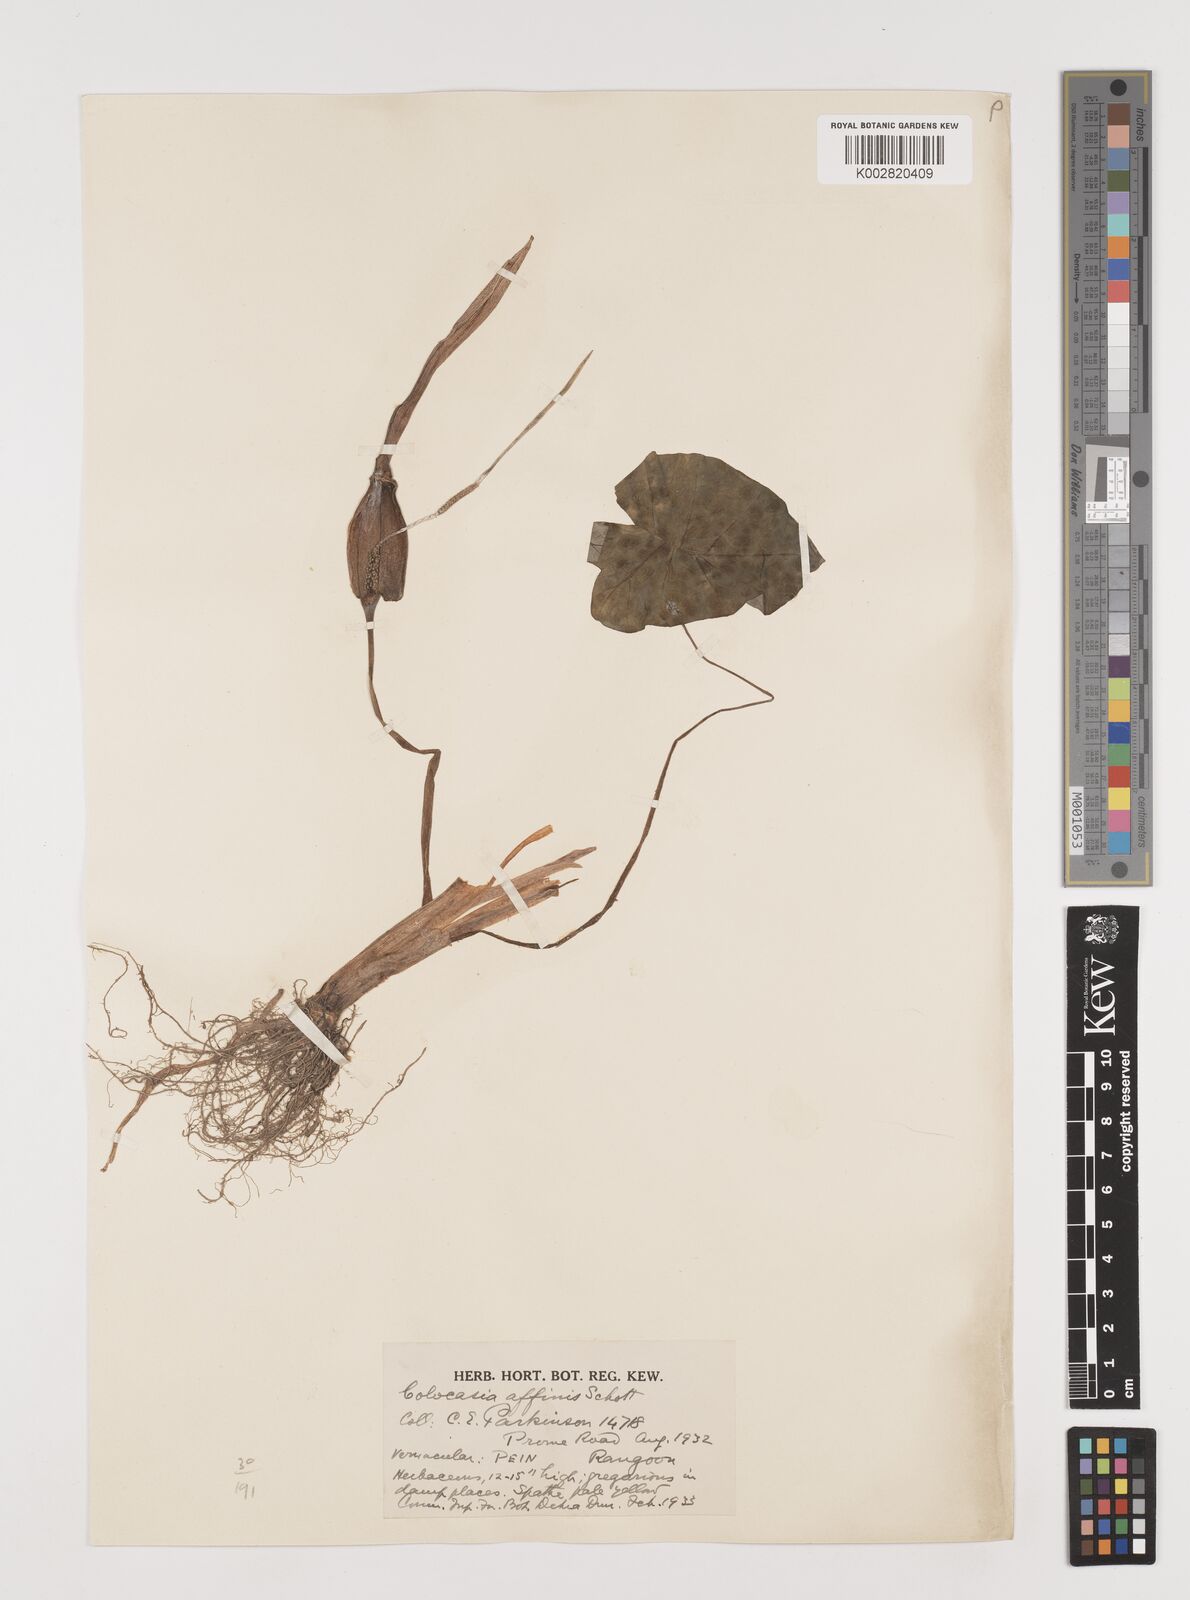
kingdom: Plantae
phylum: Tracheophyta
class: Liliopsida
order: Alismatales
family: Araceae
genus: Colocasia
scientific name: Colocasia affinis
